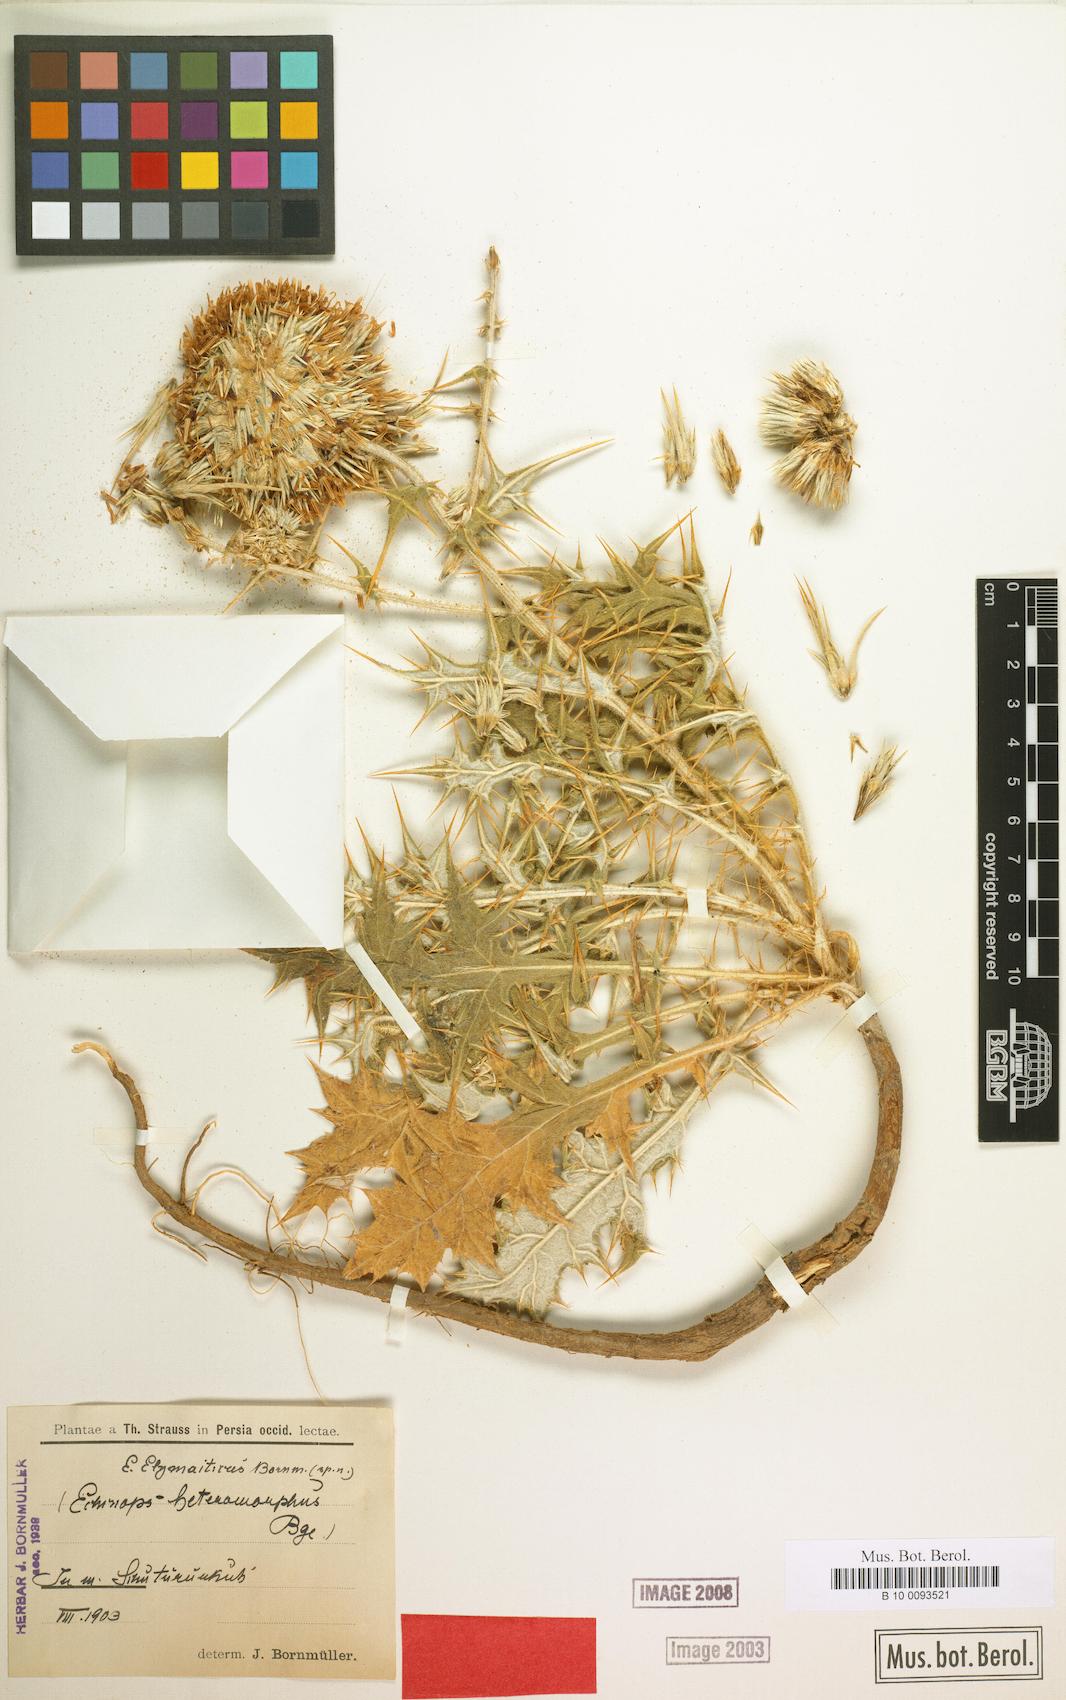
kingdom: Plantae
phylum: Tracheophyta
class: Magnoliopsida
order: Asterales
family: Asteraceae
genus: Echinops
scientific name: Echinops elymaiticus
